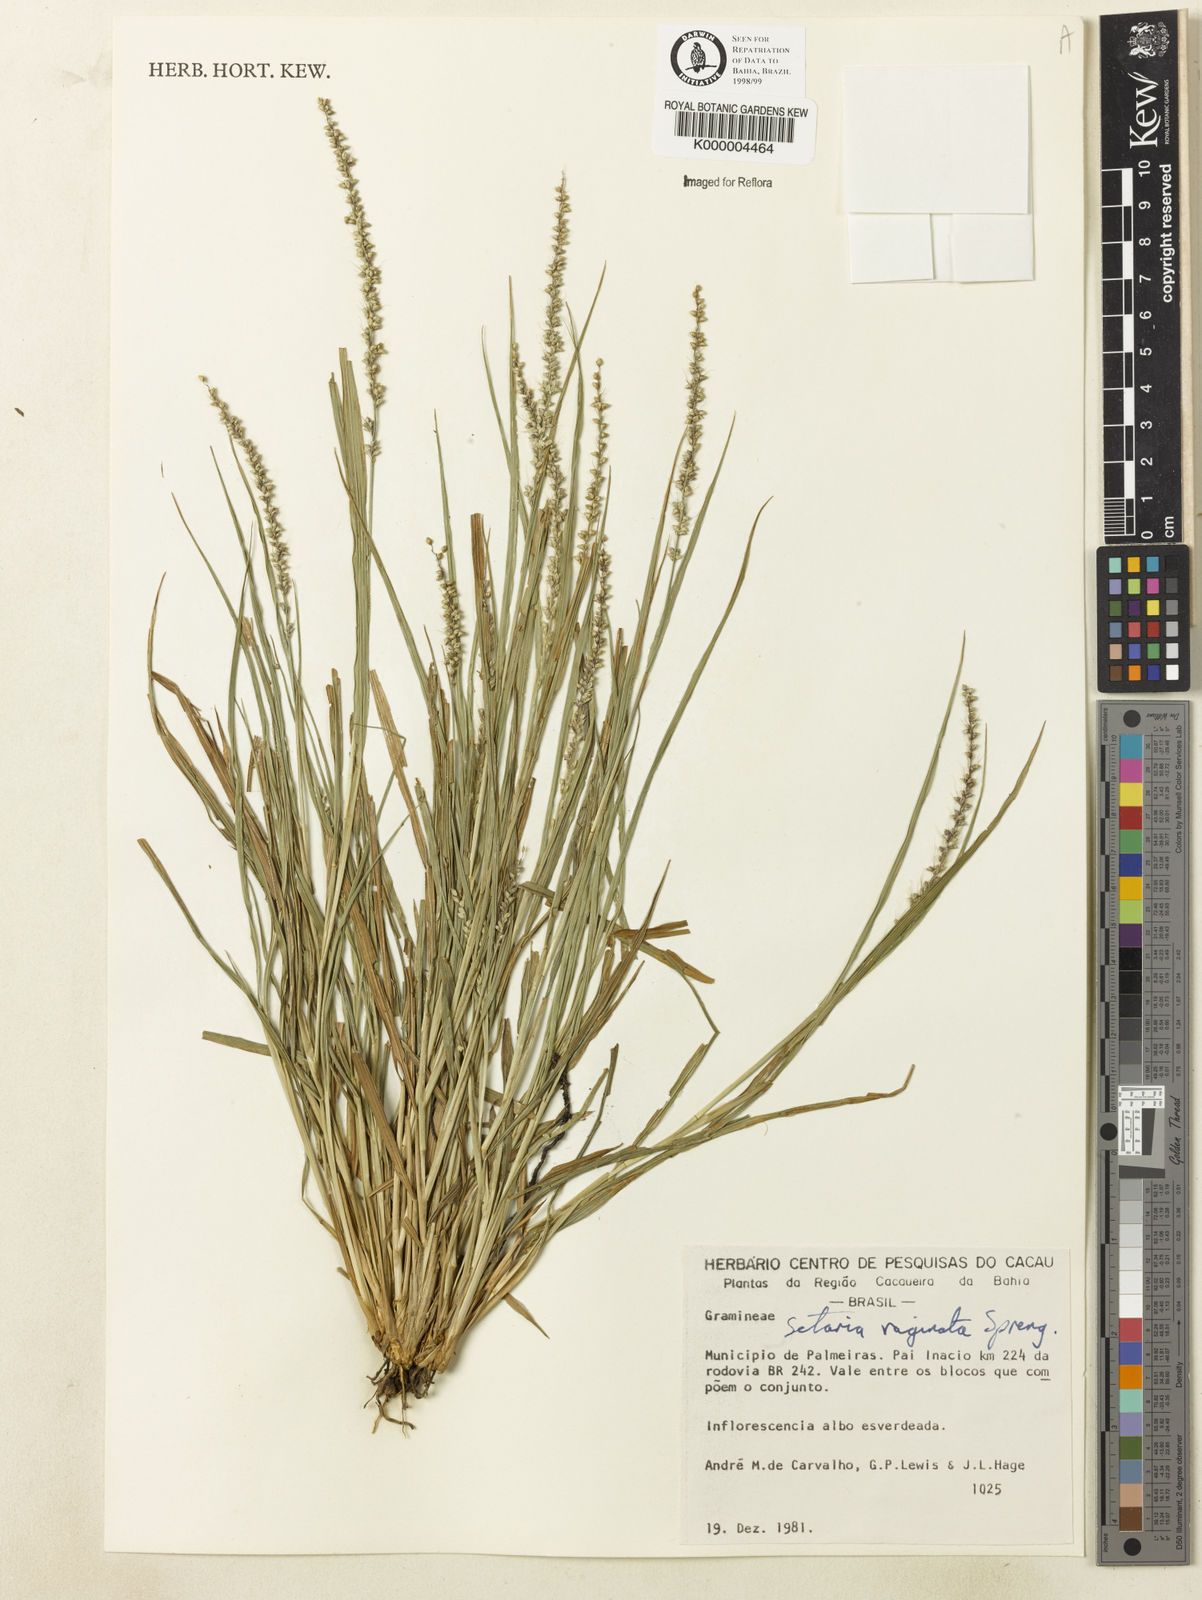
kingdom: Plantae
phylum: Tracheophyta
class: Liliopsida
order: Poales
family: Poaceae
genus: Setaria
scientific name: Setaria setosa
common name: West indies bristle grass
